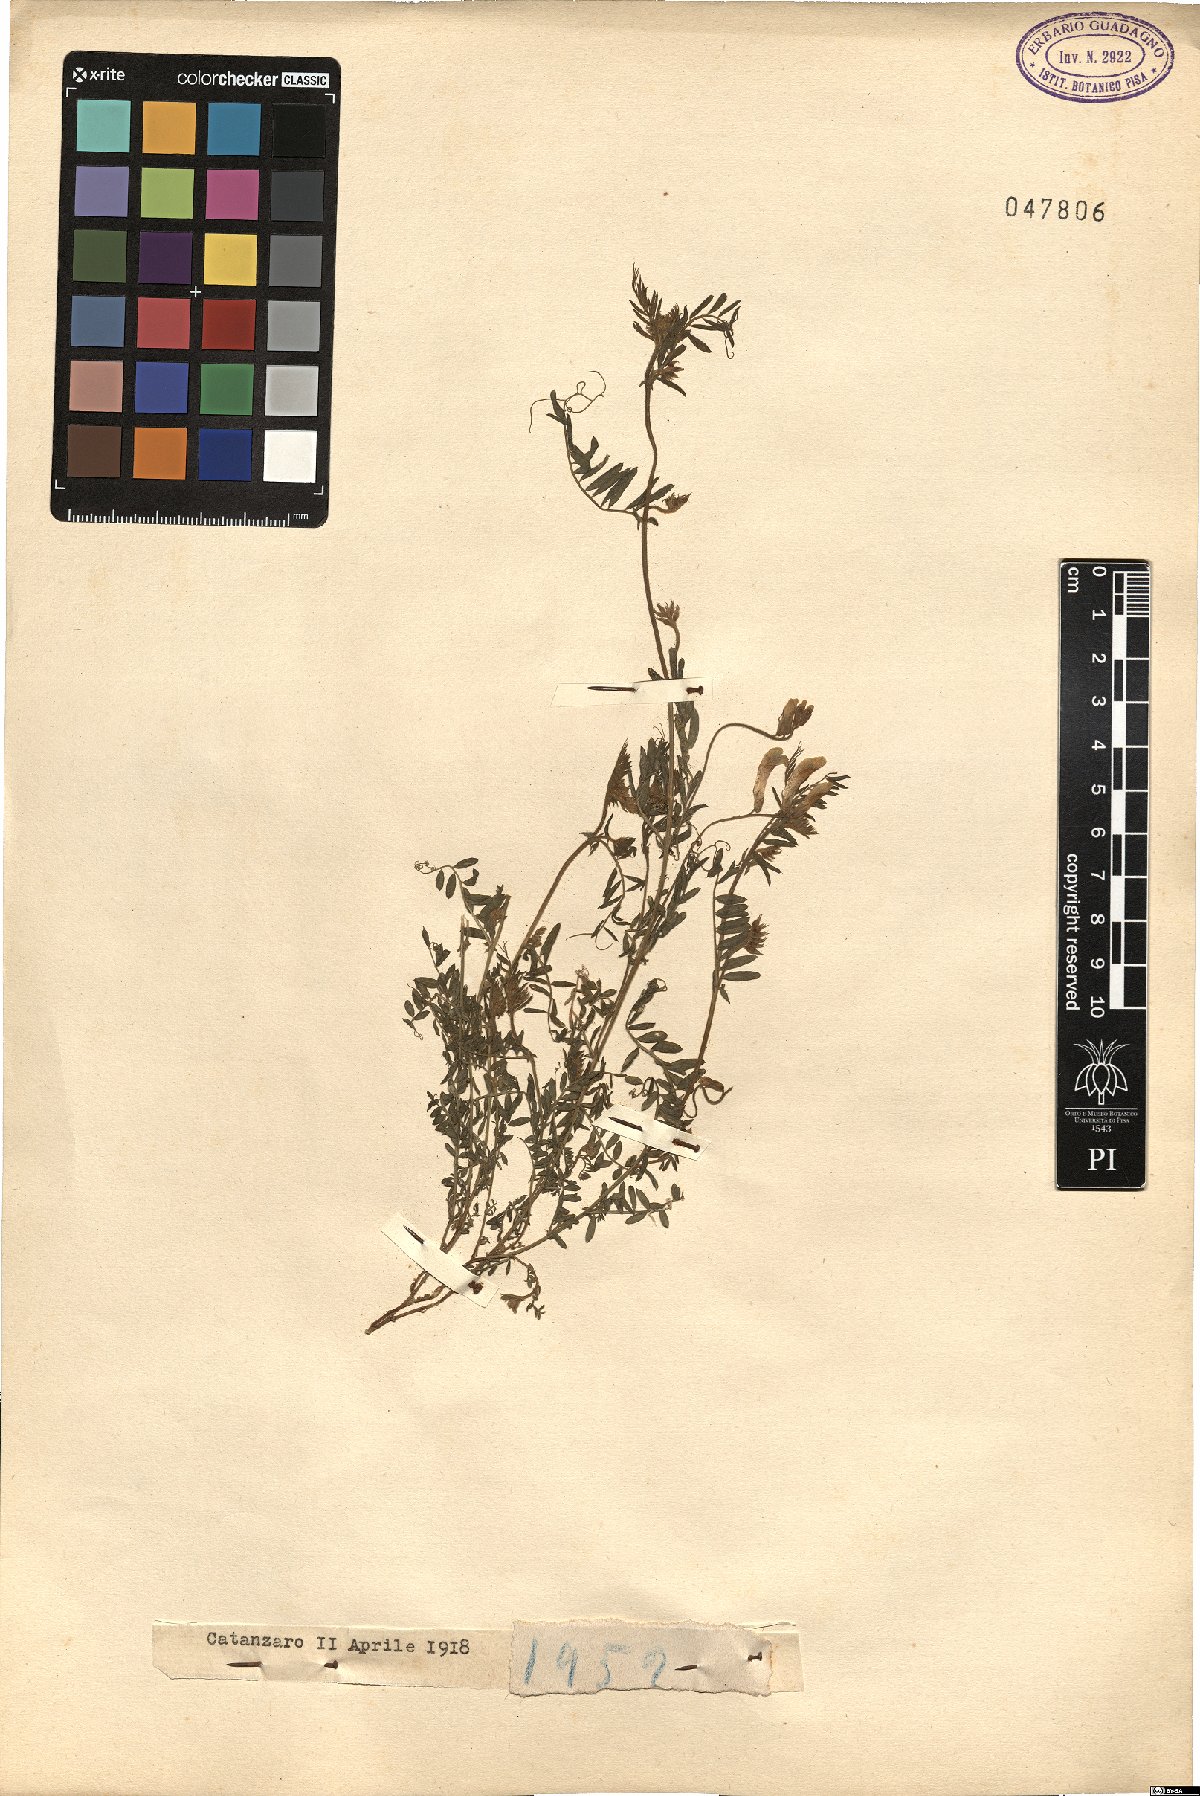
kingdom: Plantae
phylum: Tracheophyta
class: Magnoliopsida
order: Fabales
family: Fabaceae
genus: Vicia
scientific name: Vicia
